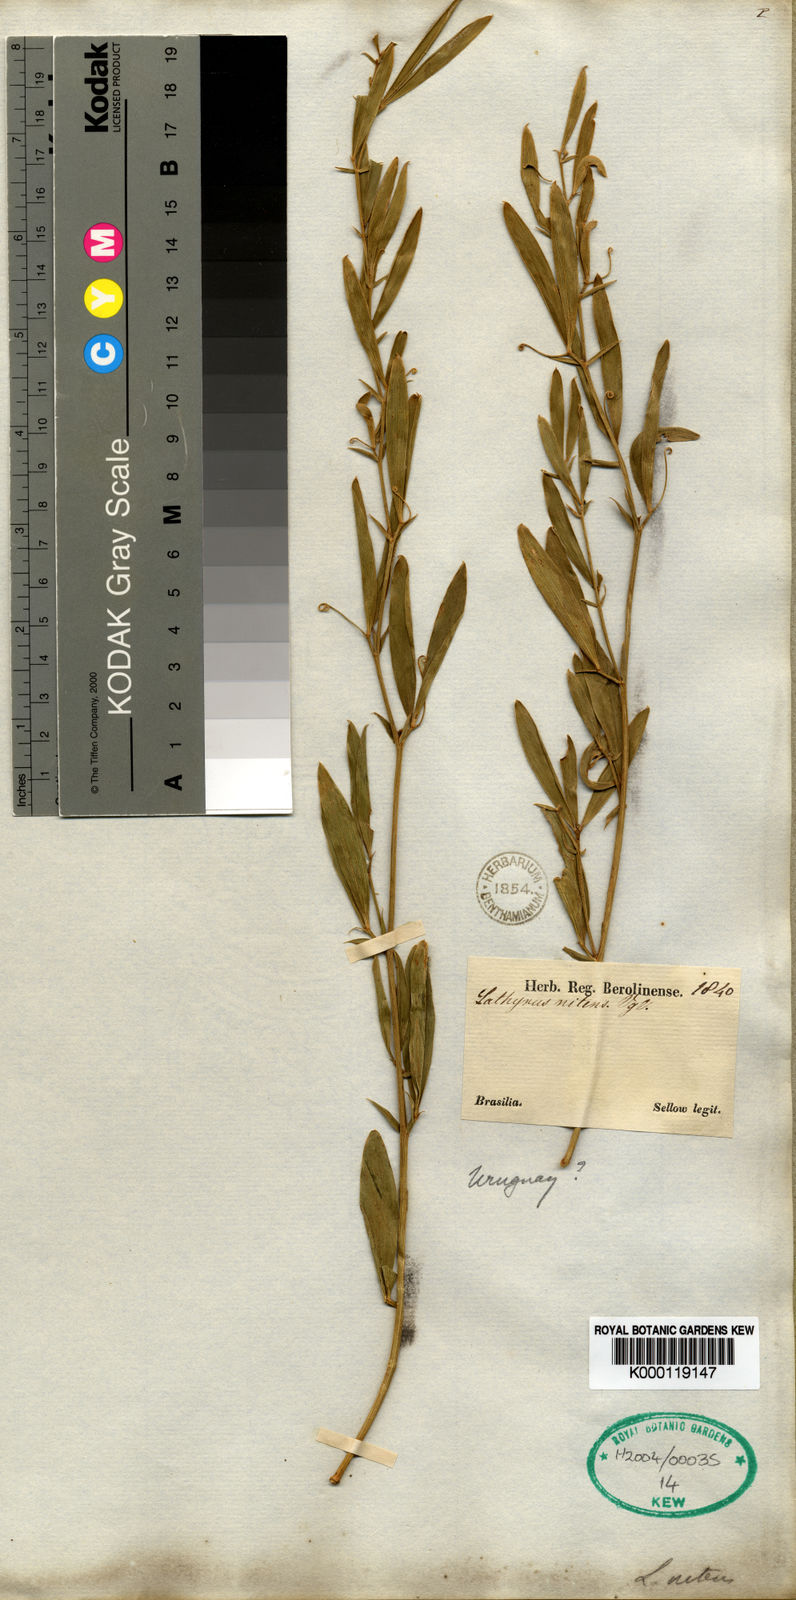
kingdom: Plantae
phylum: Tracheophyta
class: Magnoliopsida
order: Fabales
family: Fabaceae
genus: Lathyrus
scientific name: Lathyrus nitens
